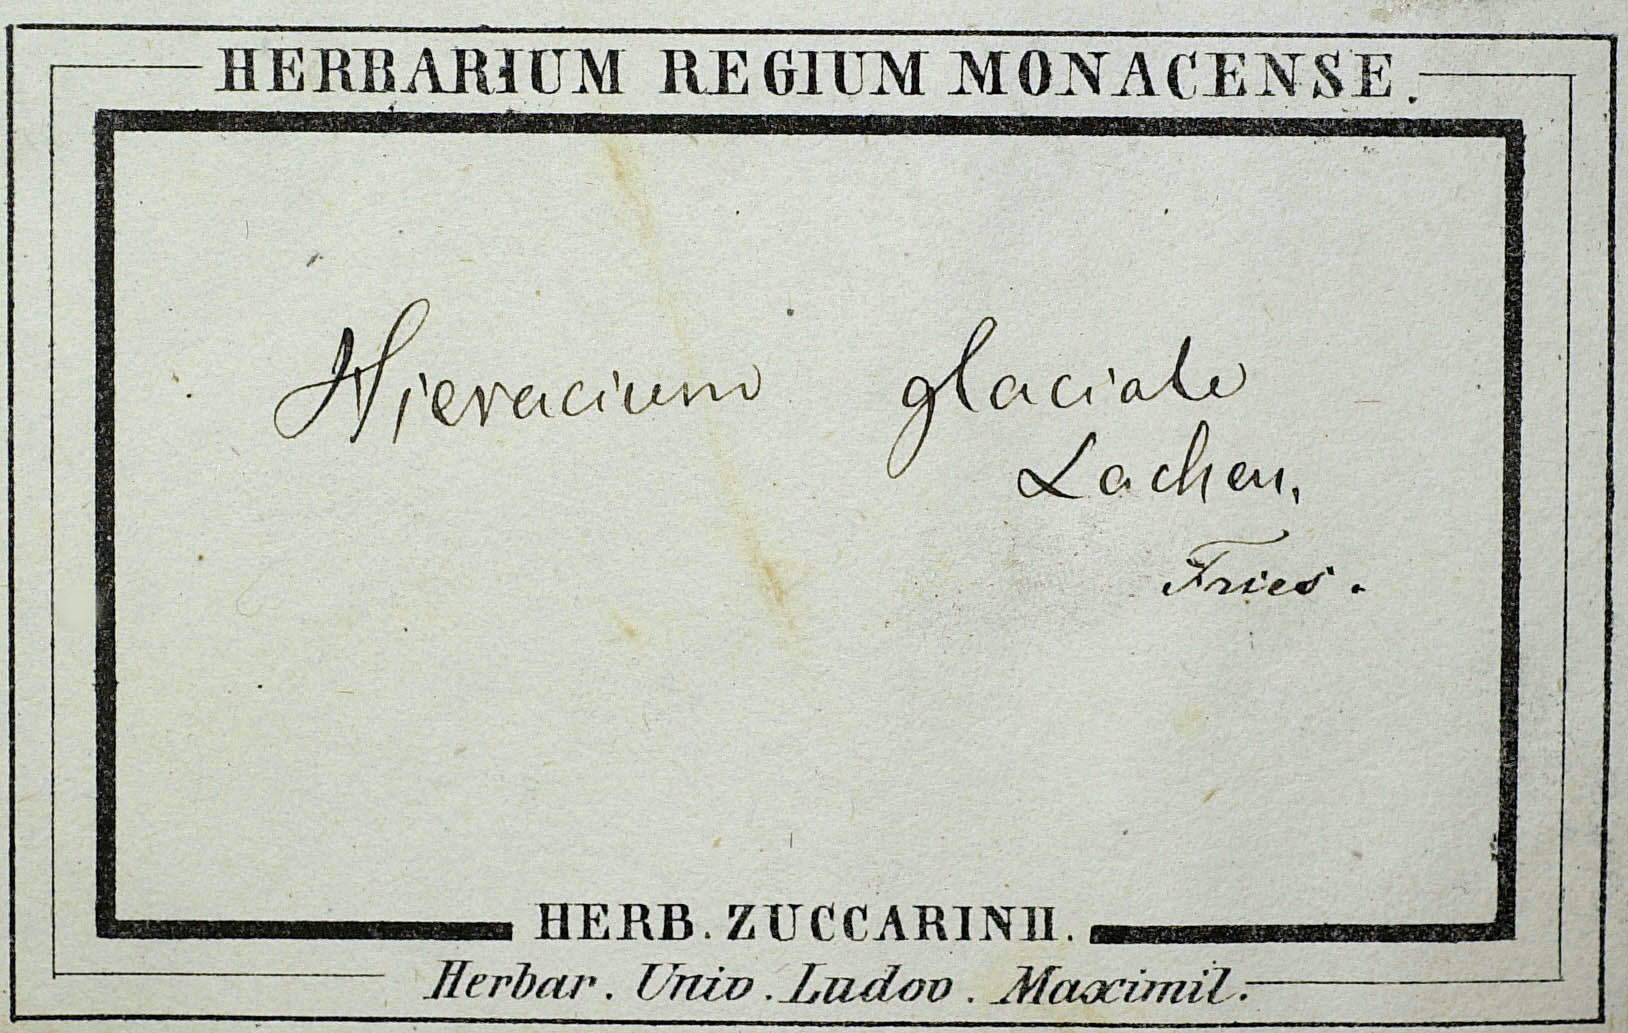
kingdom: Plantae
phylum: Tracheophyta
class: Magnoliopsida
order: Asterales
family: Asteraceae
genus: Pilosella
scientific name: Pilosella glacialis
